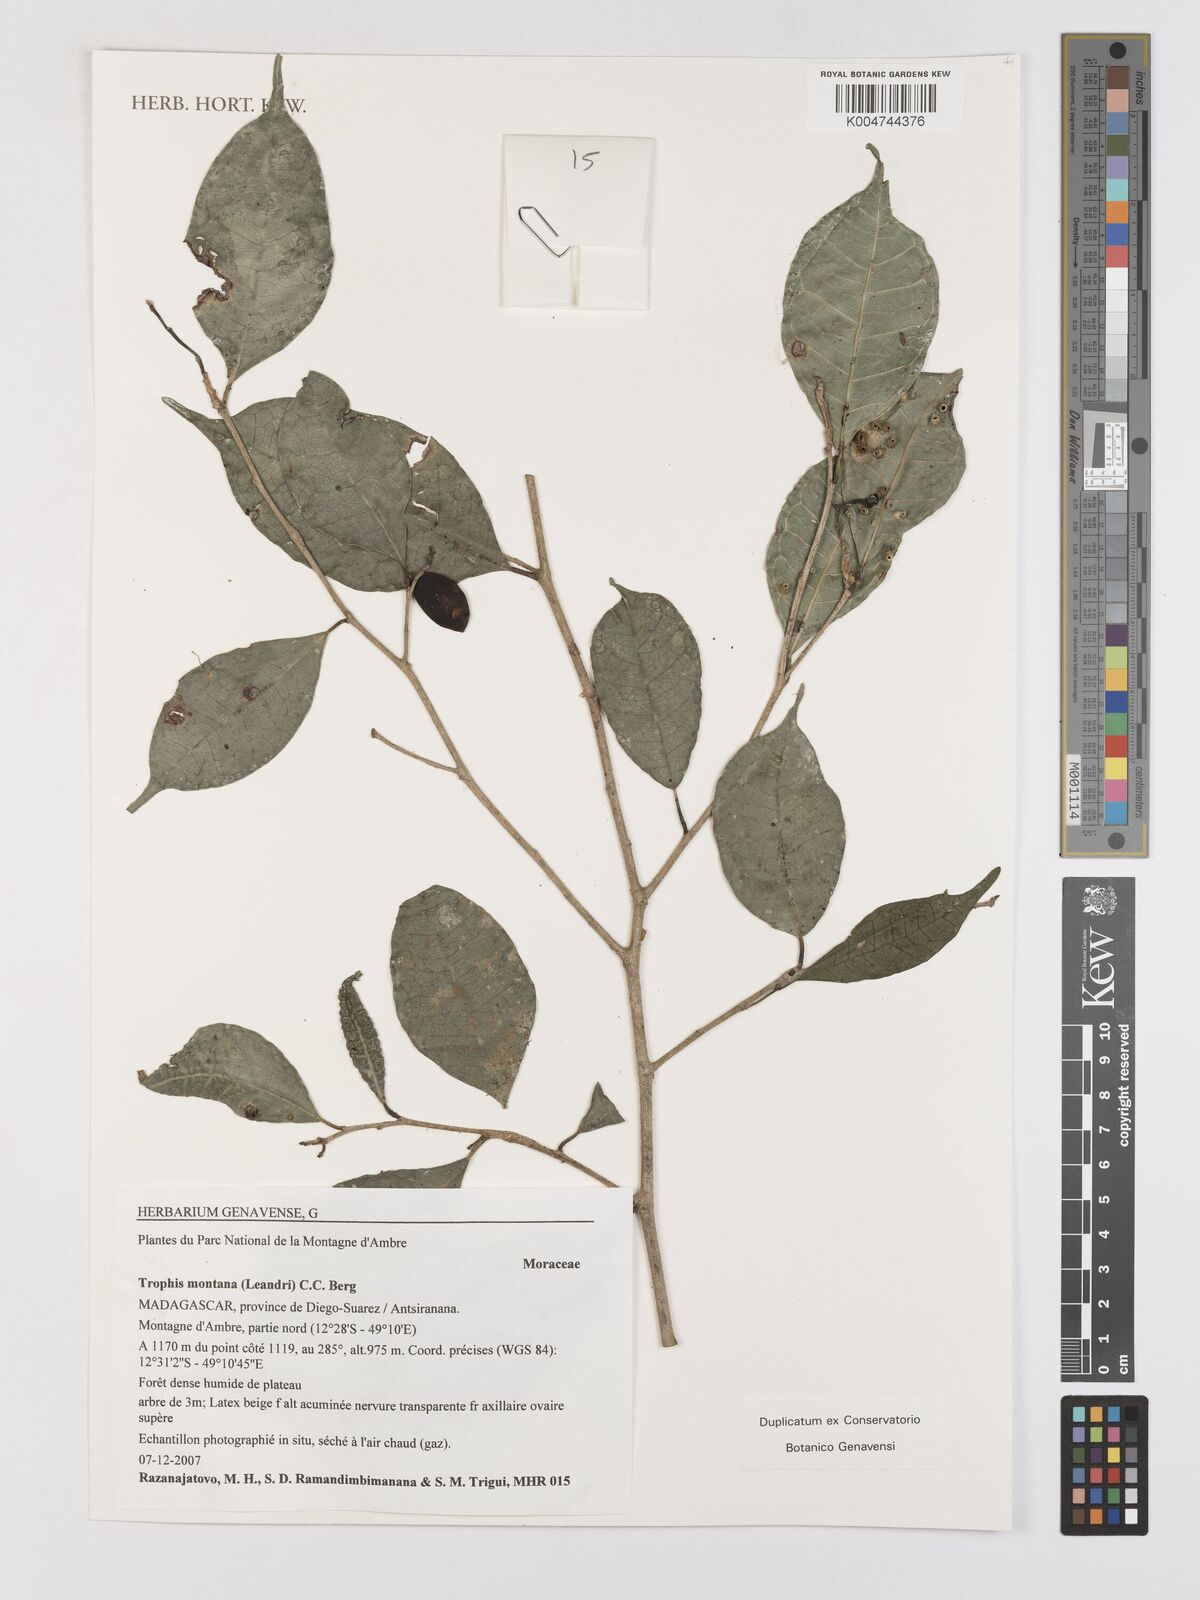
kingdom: Plantae
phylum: Tracheophyta
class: Magnoliopsida
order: Rosales
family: Moraceae
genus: Maillardia
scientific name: Maillardia montana
